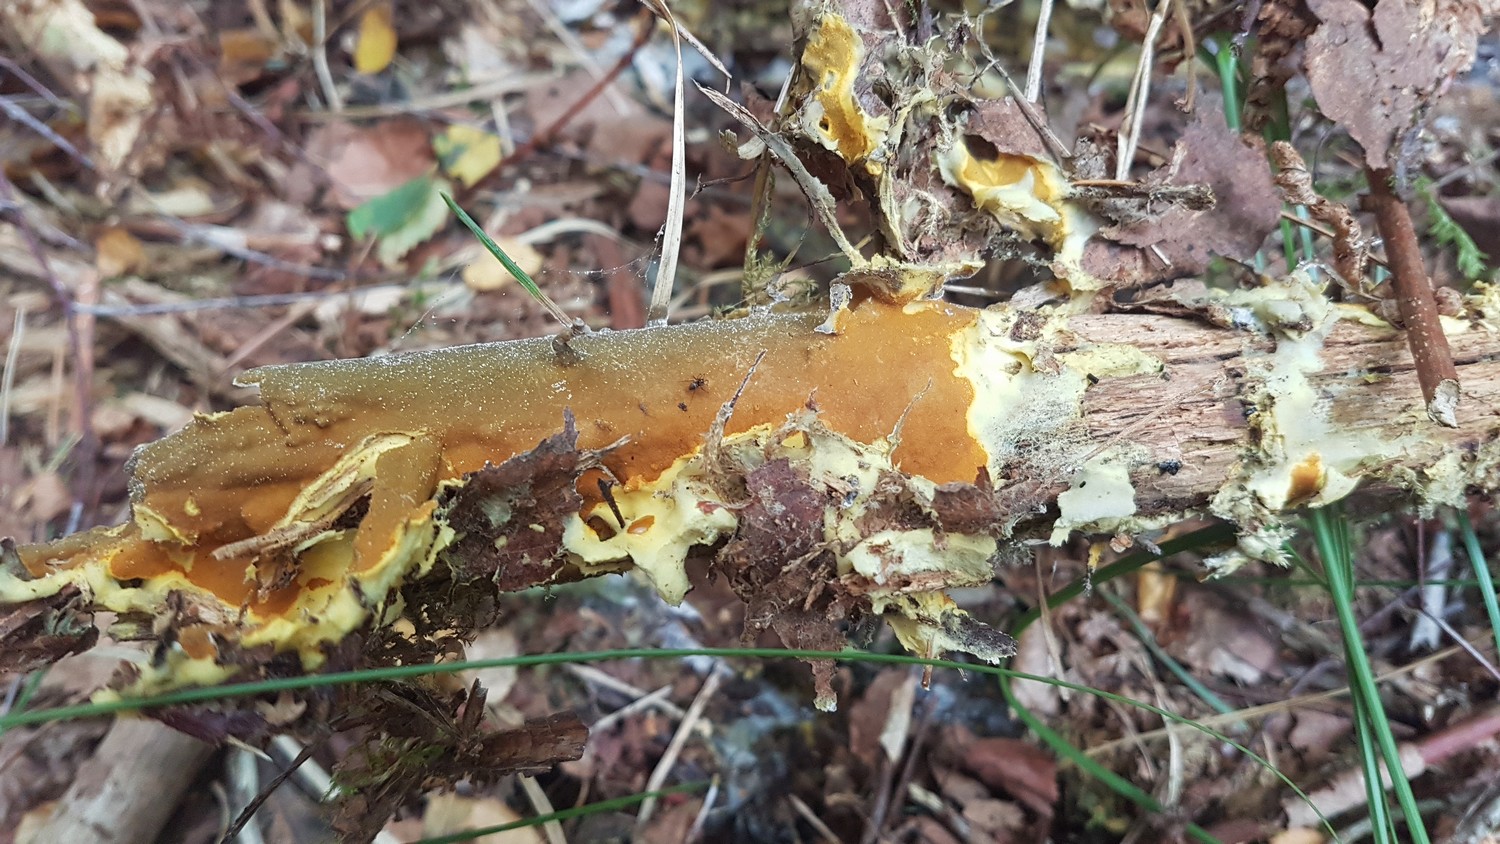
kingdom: Fungi
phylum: Ascomycota
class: Sordariomycetes
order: Hypocreales
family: Hypocreaceae
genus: Trichoderma
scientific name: Trichoderma
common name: kødkerne
